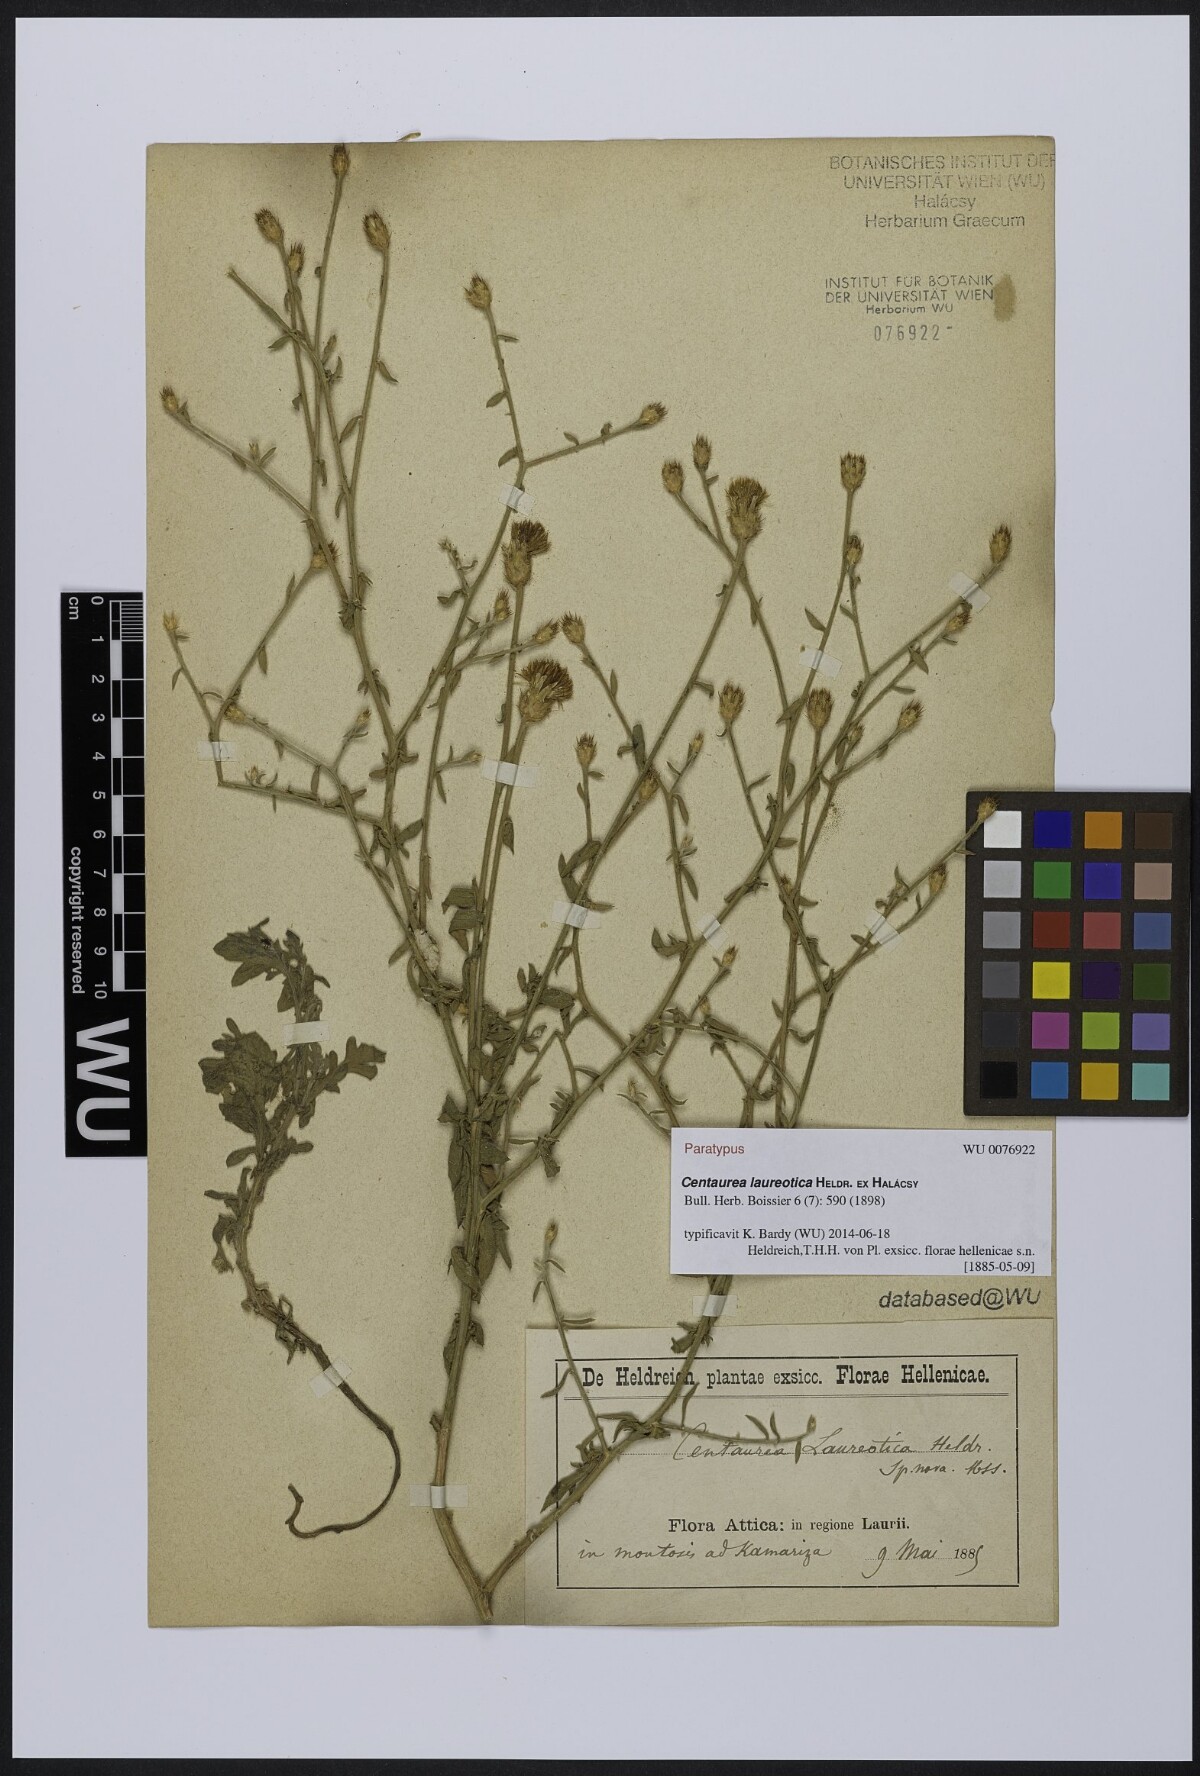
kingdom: Plantae
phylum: Tracheophyta
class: Magnoliopsida
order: Asterales
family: Asteraceae
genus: Centaurea
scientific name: Centaurea laureotica
